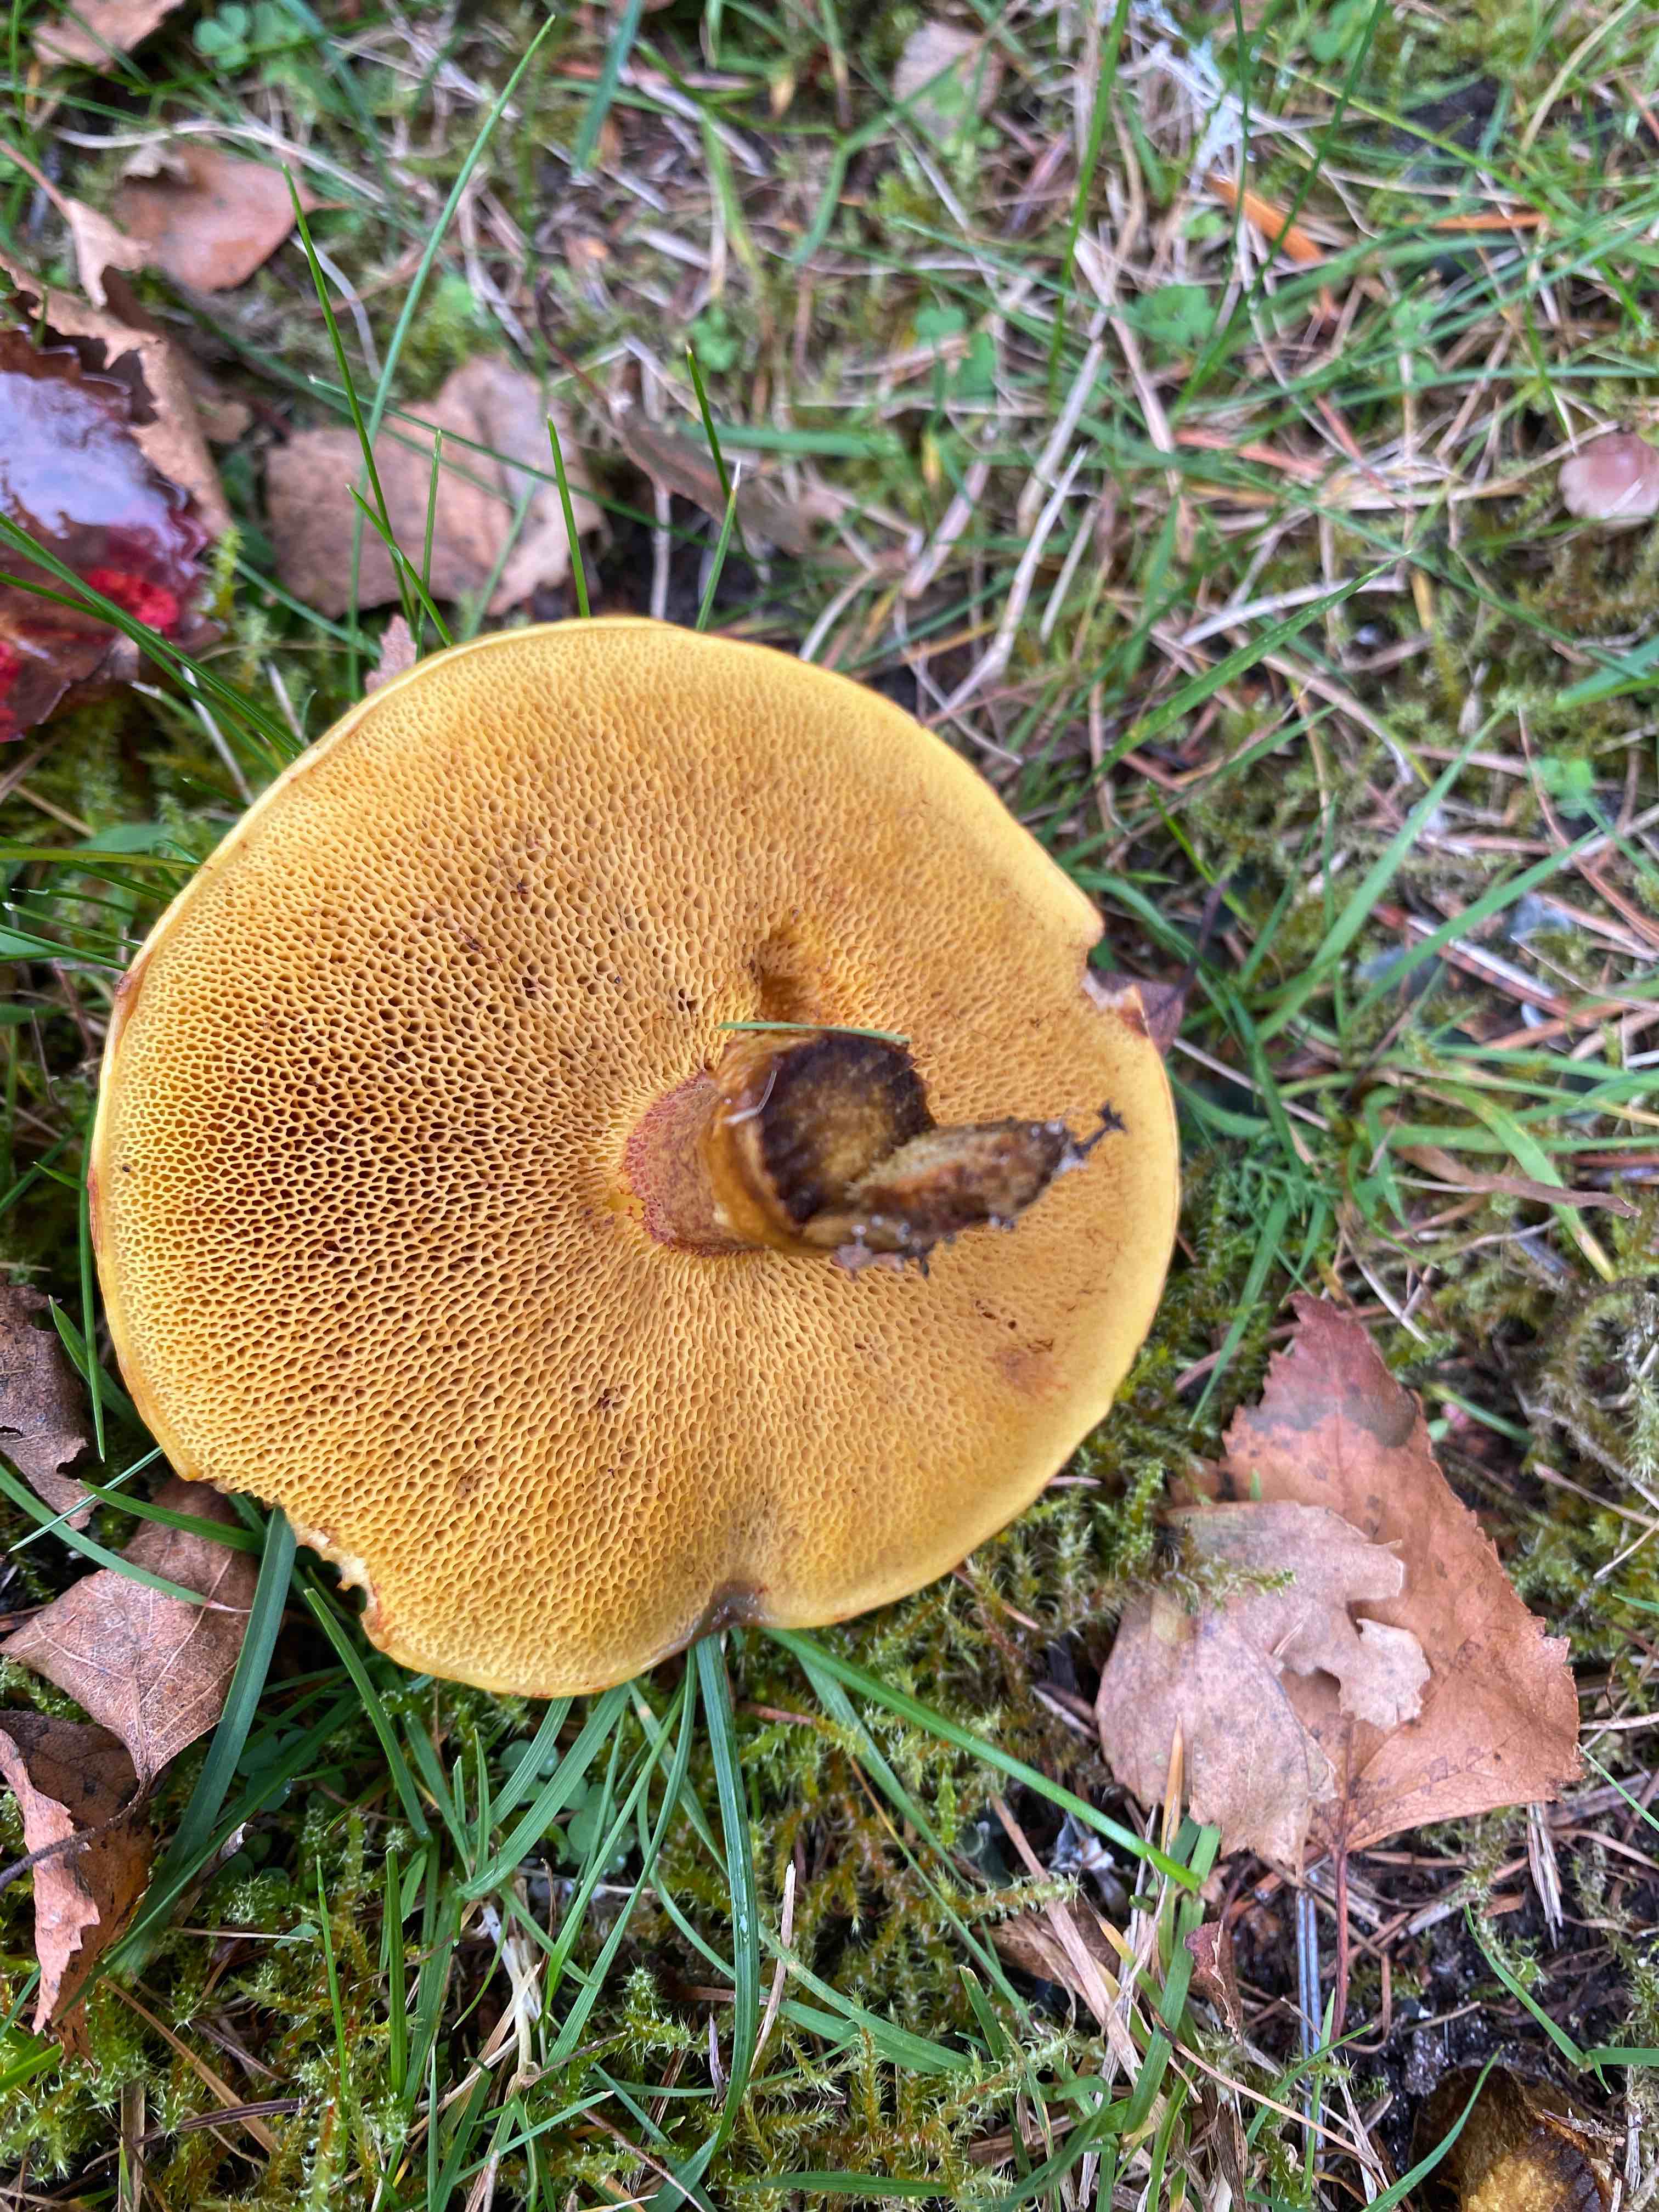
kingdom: Fungi
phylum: Basidiomycota
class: Agaricomycetes
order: Boletales
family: Suillaceae
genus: Suillus
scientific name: Suillus grevillei
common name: lærke-slimrørhat
